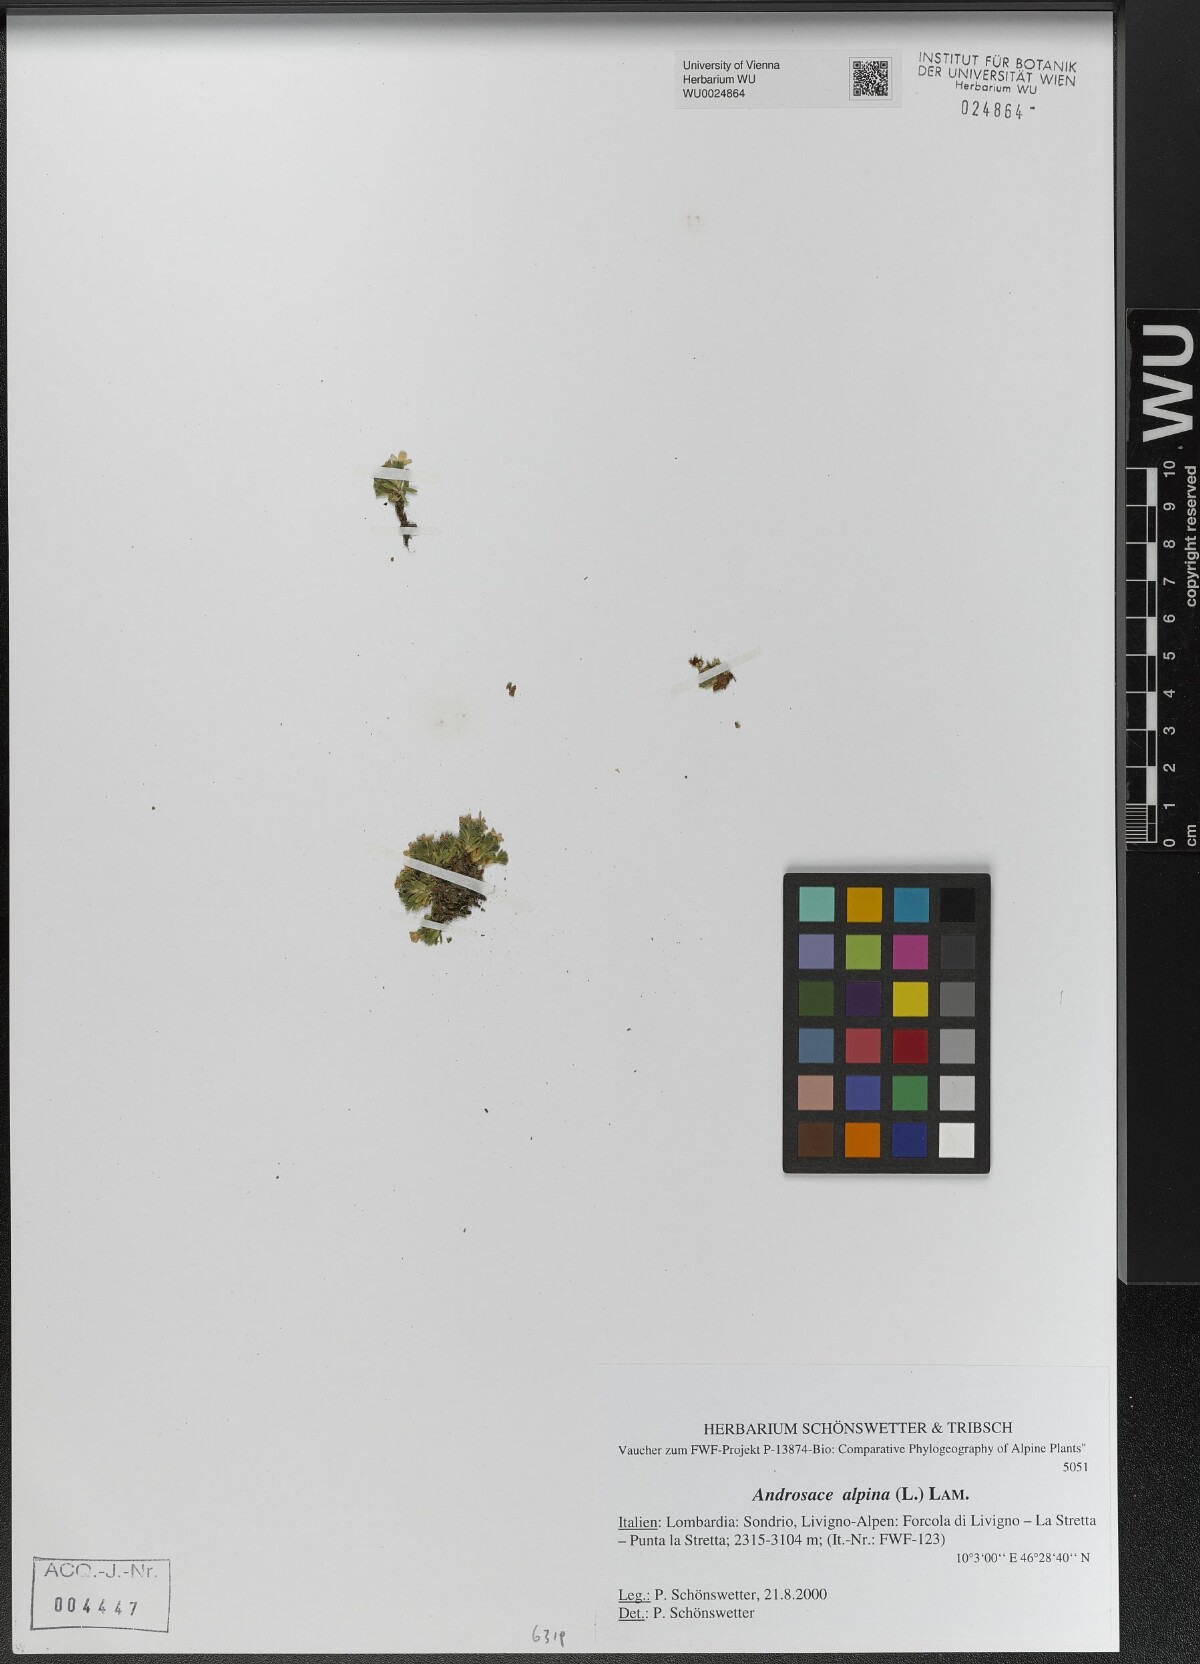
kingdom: Plantae
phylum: Tracheophyta
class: Magnoliopsida
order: Ericales
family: Primulaceae
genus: Androsace
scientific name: Androsace alpina
